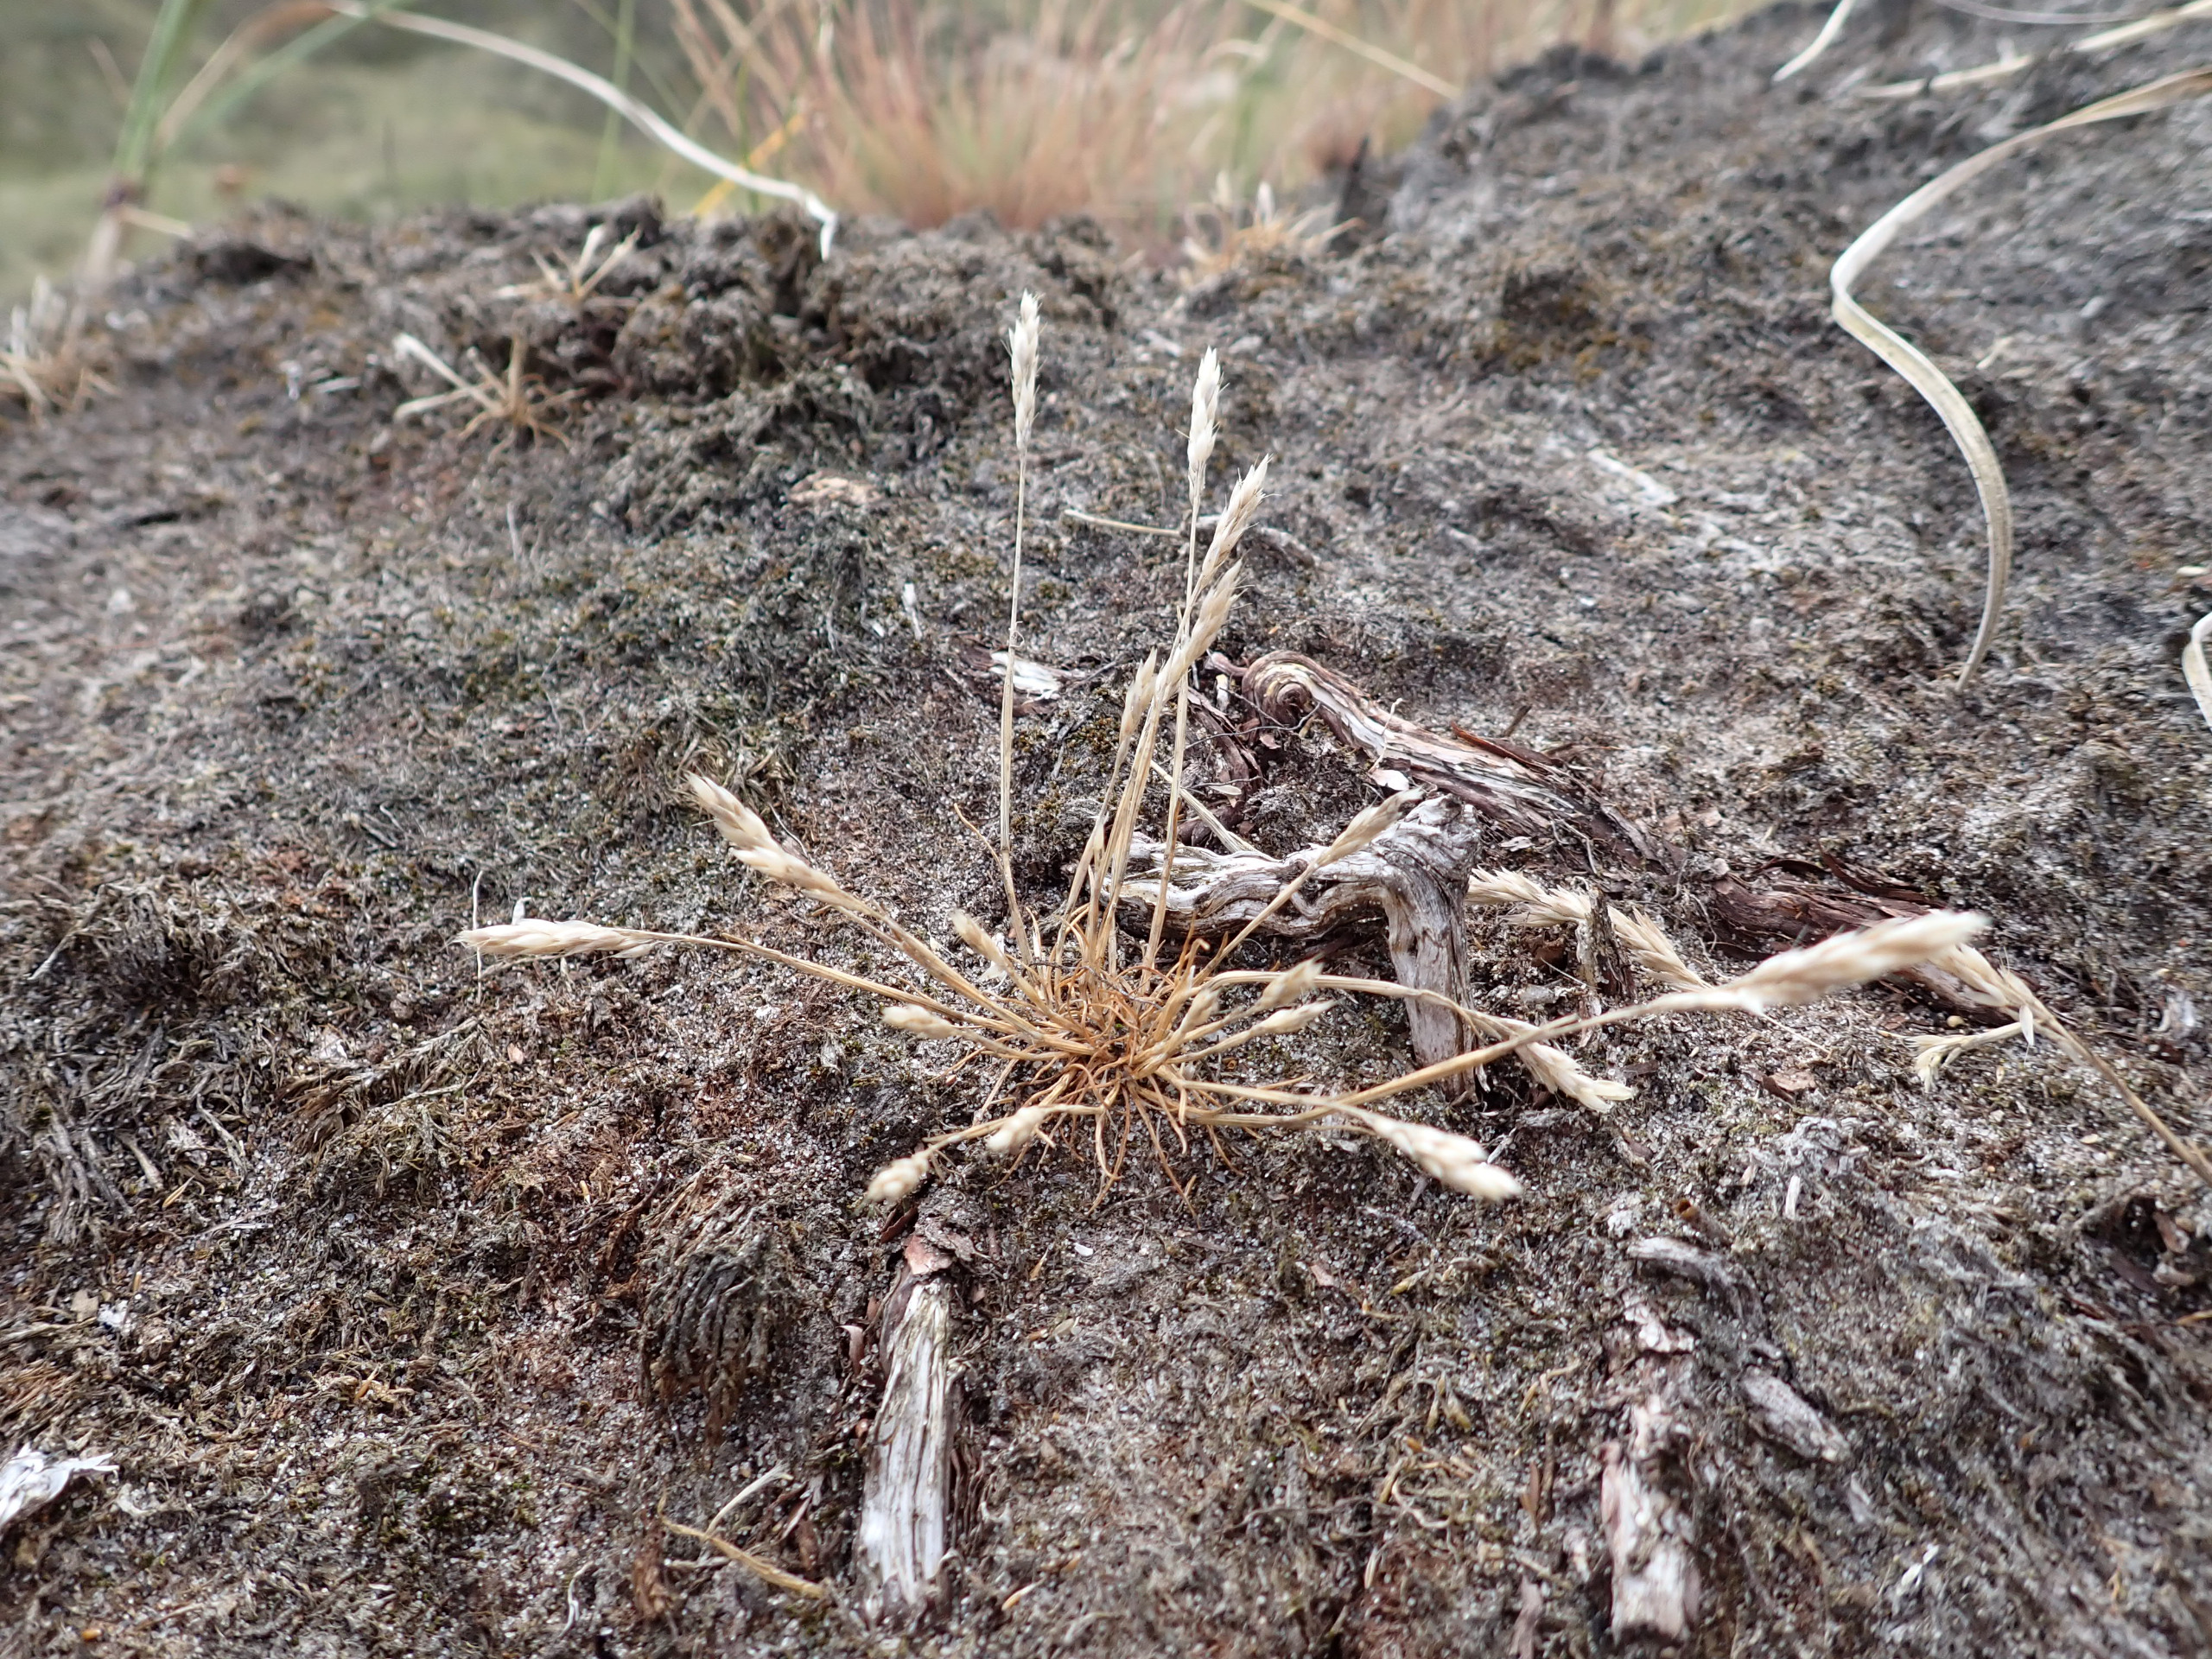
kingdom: Plantae
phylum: Tracheophyta
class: Liliopsida
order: Poales
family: Poaceae
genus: Aira
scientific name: Aira praecox
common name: Tidlig dværgbunke
